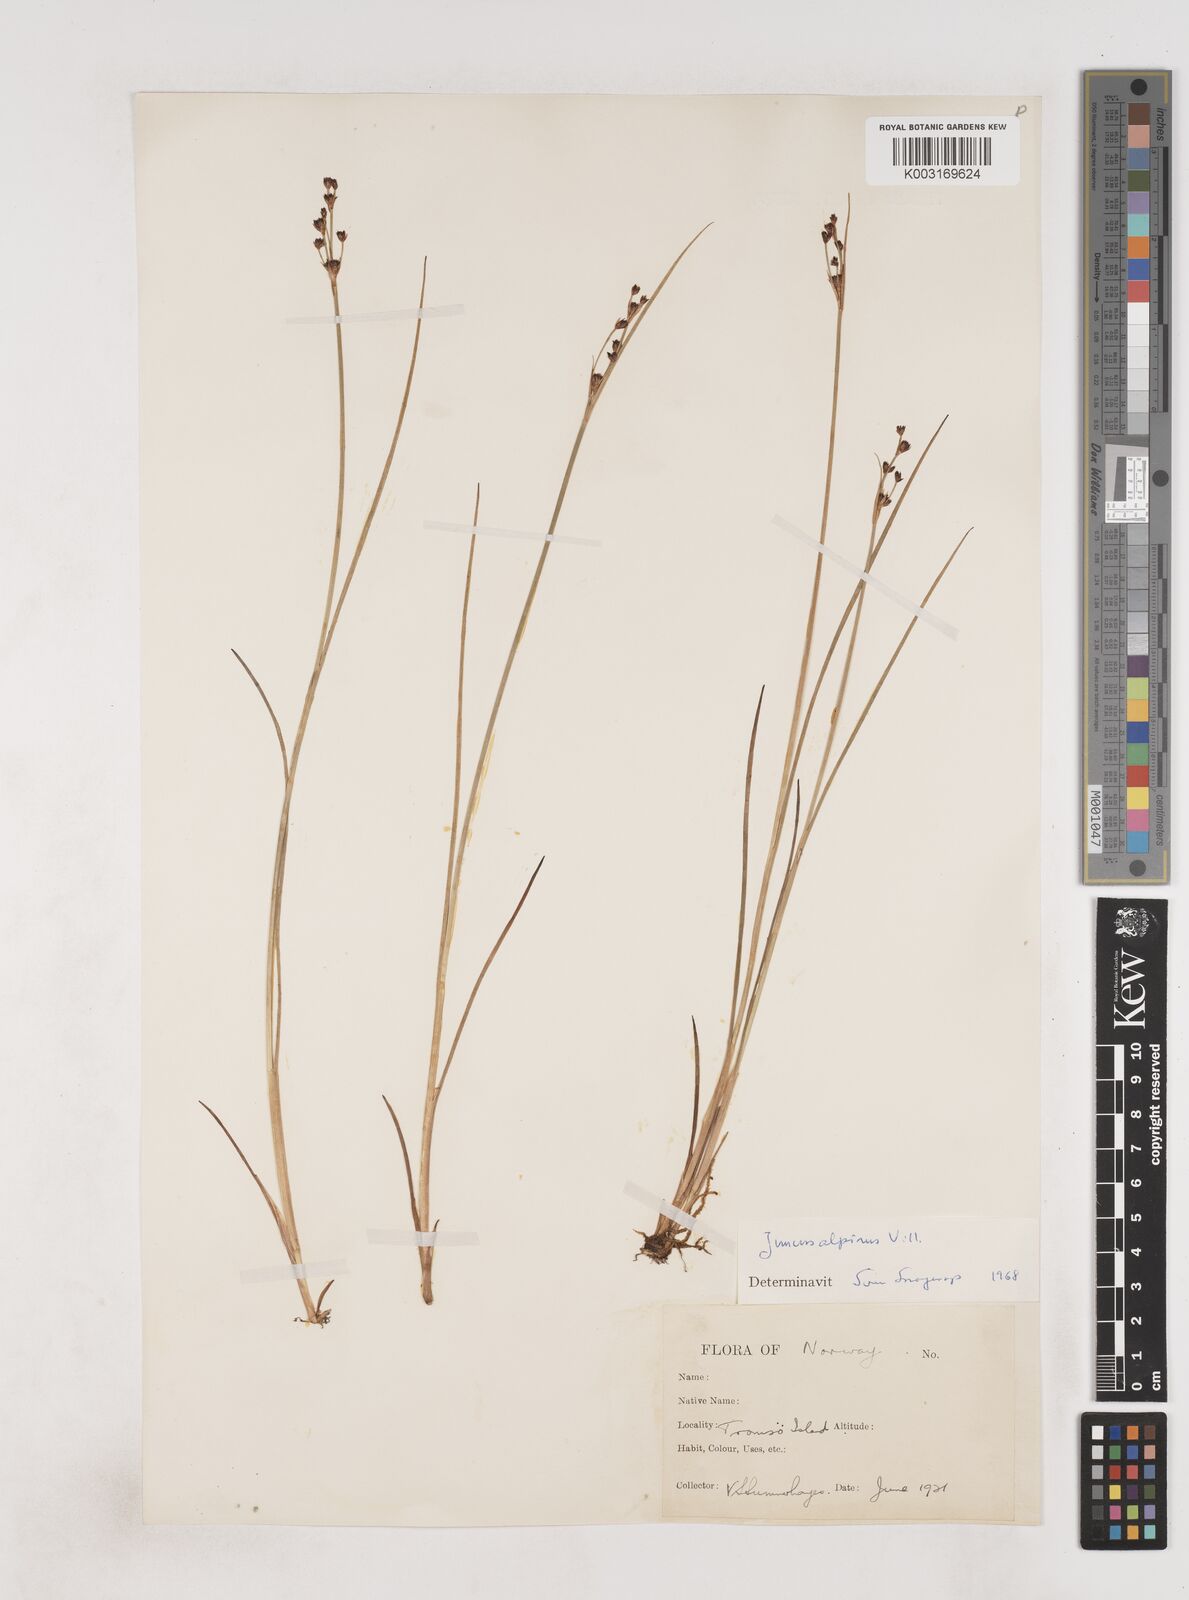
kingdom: Plantae
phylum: Tracheophyta
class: Liliopsida
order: Poales
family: Juncaceae
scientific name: Juncaceae
